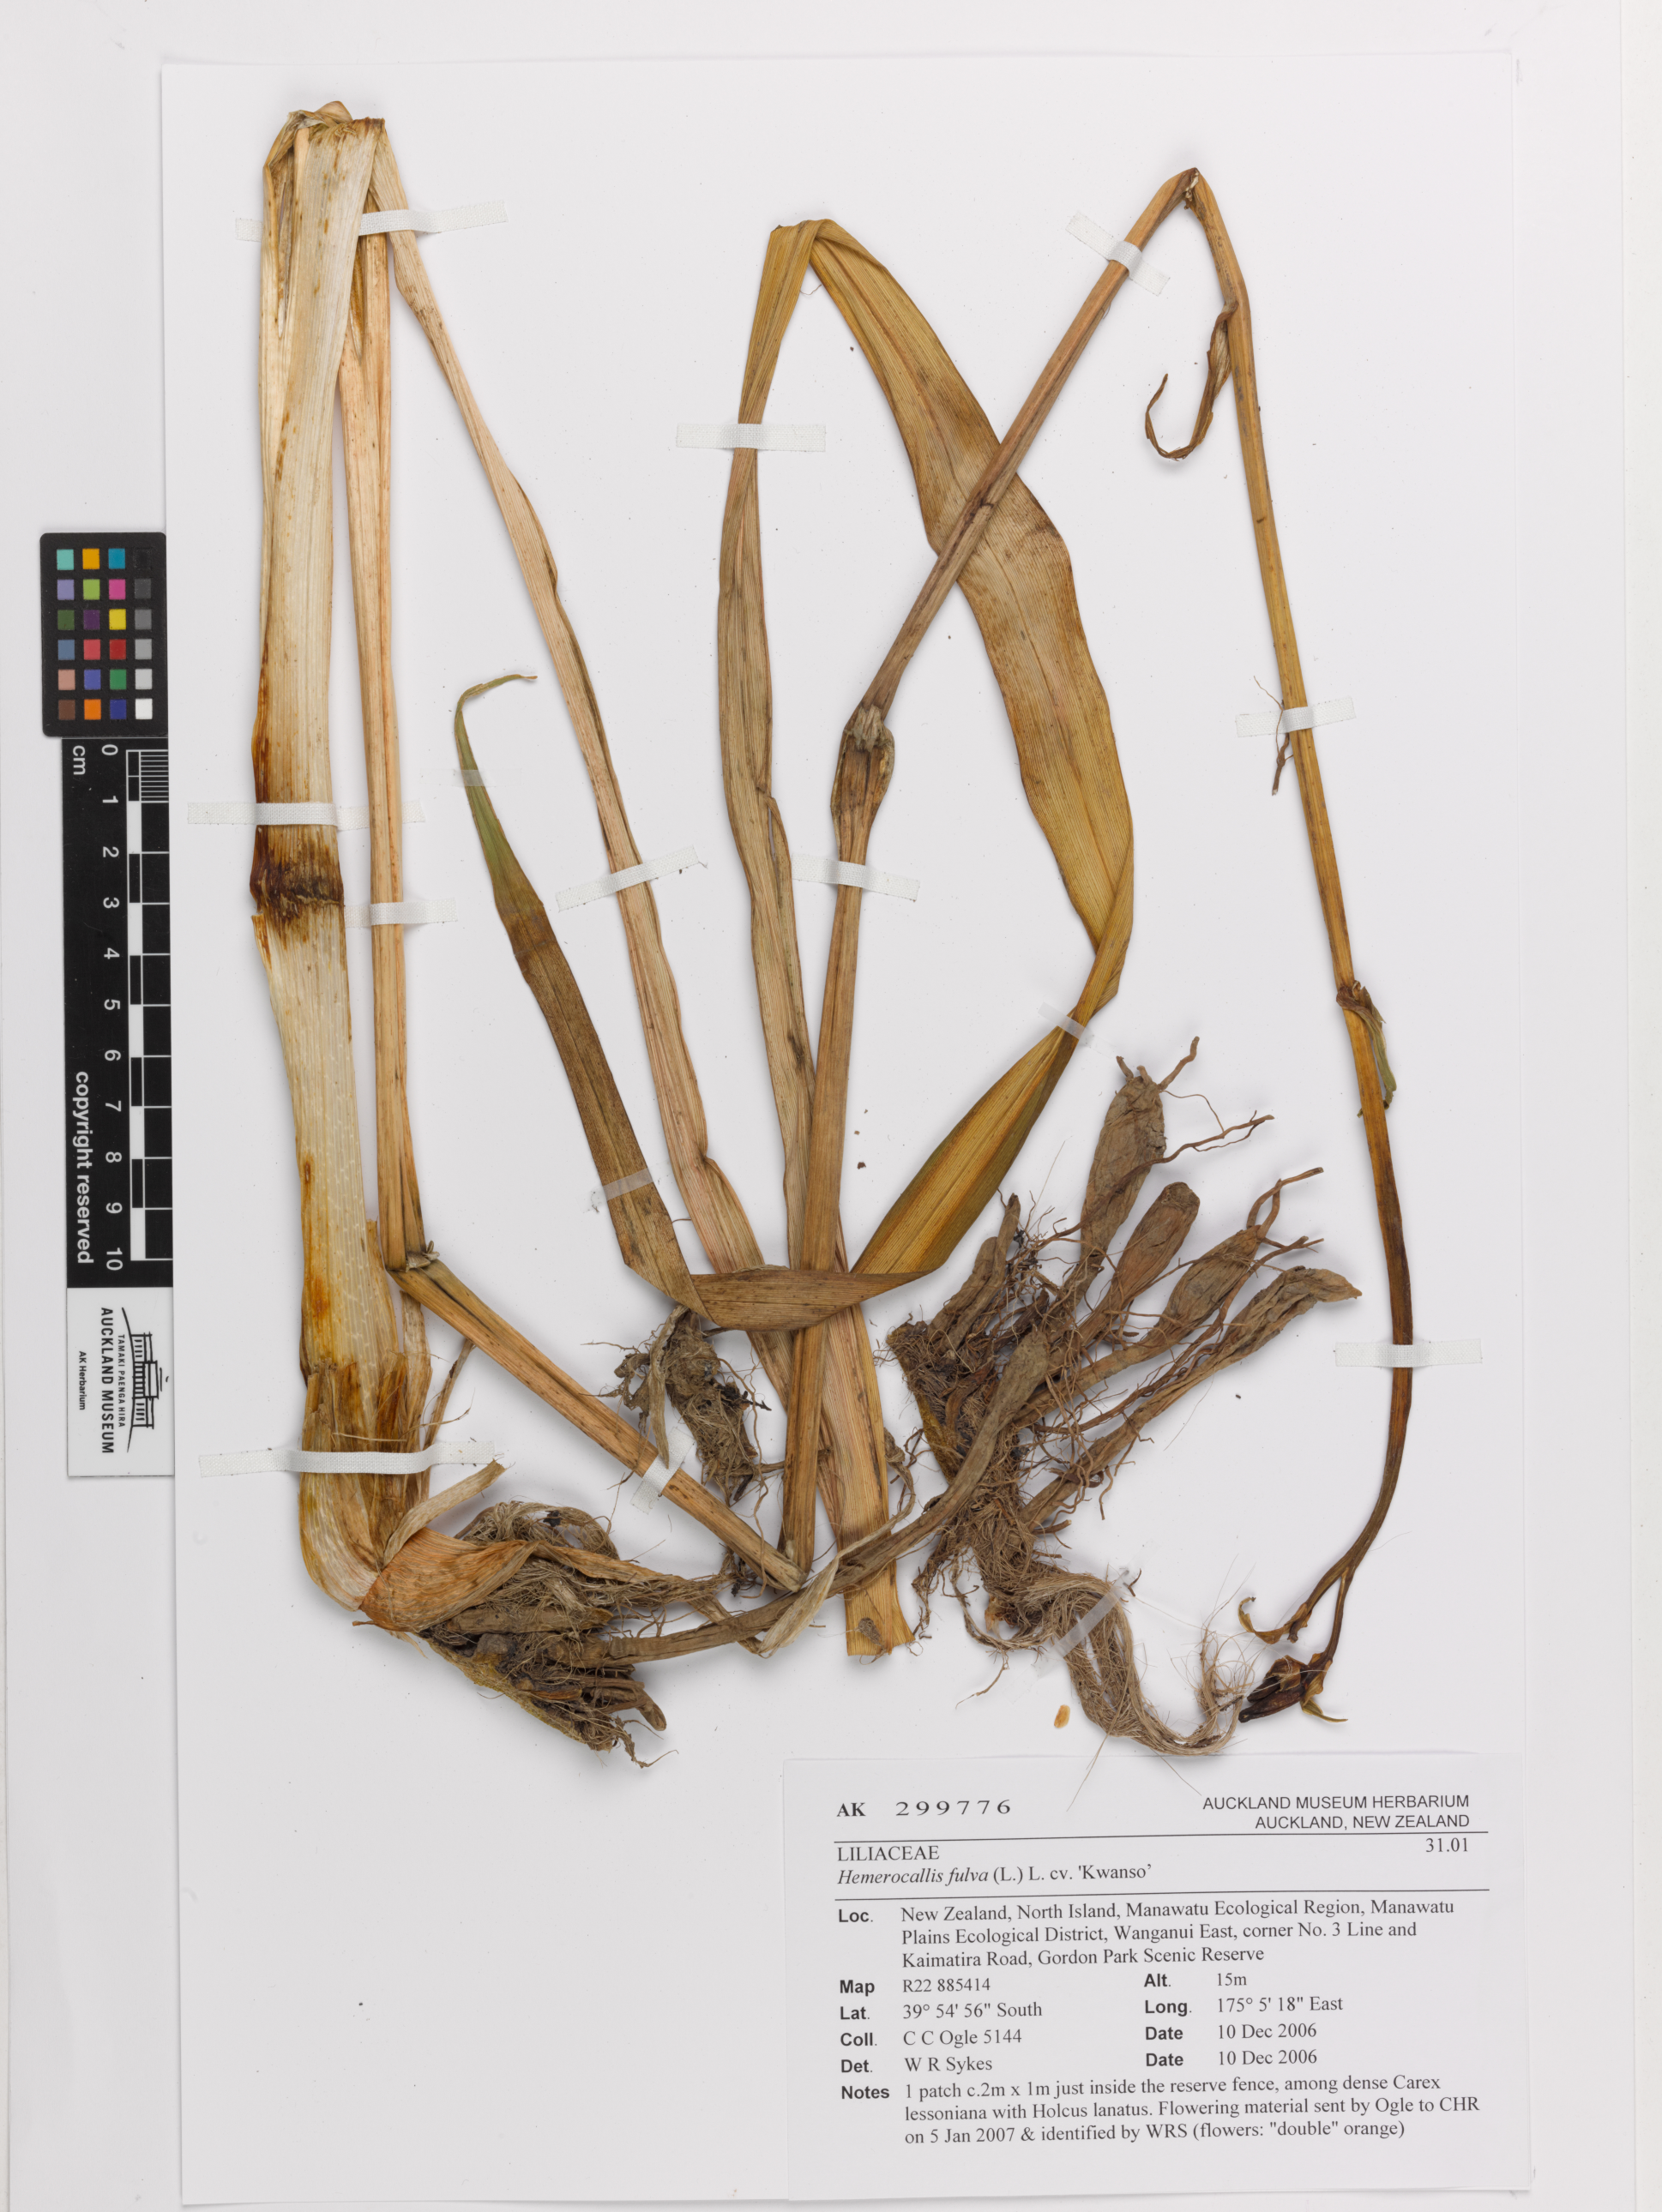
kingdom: Plantae
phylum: Tracheophyta
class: Liliopsida
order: Asparagales
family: Asphodelaceae
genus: Hemerocallis
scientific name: Hemerocallis fulva
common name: Orange day-lily
